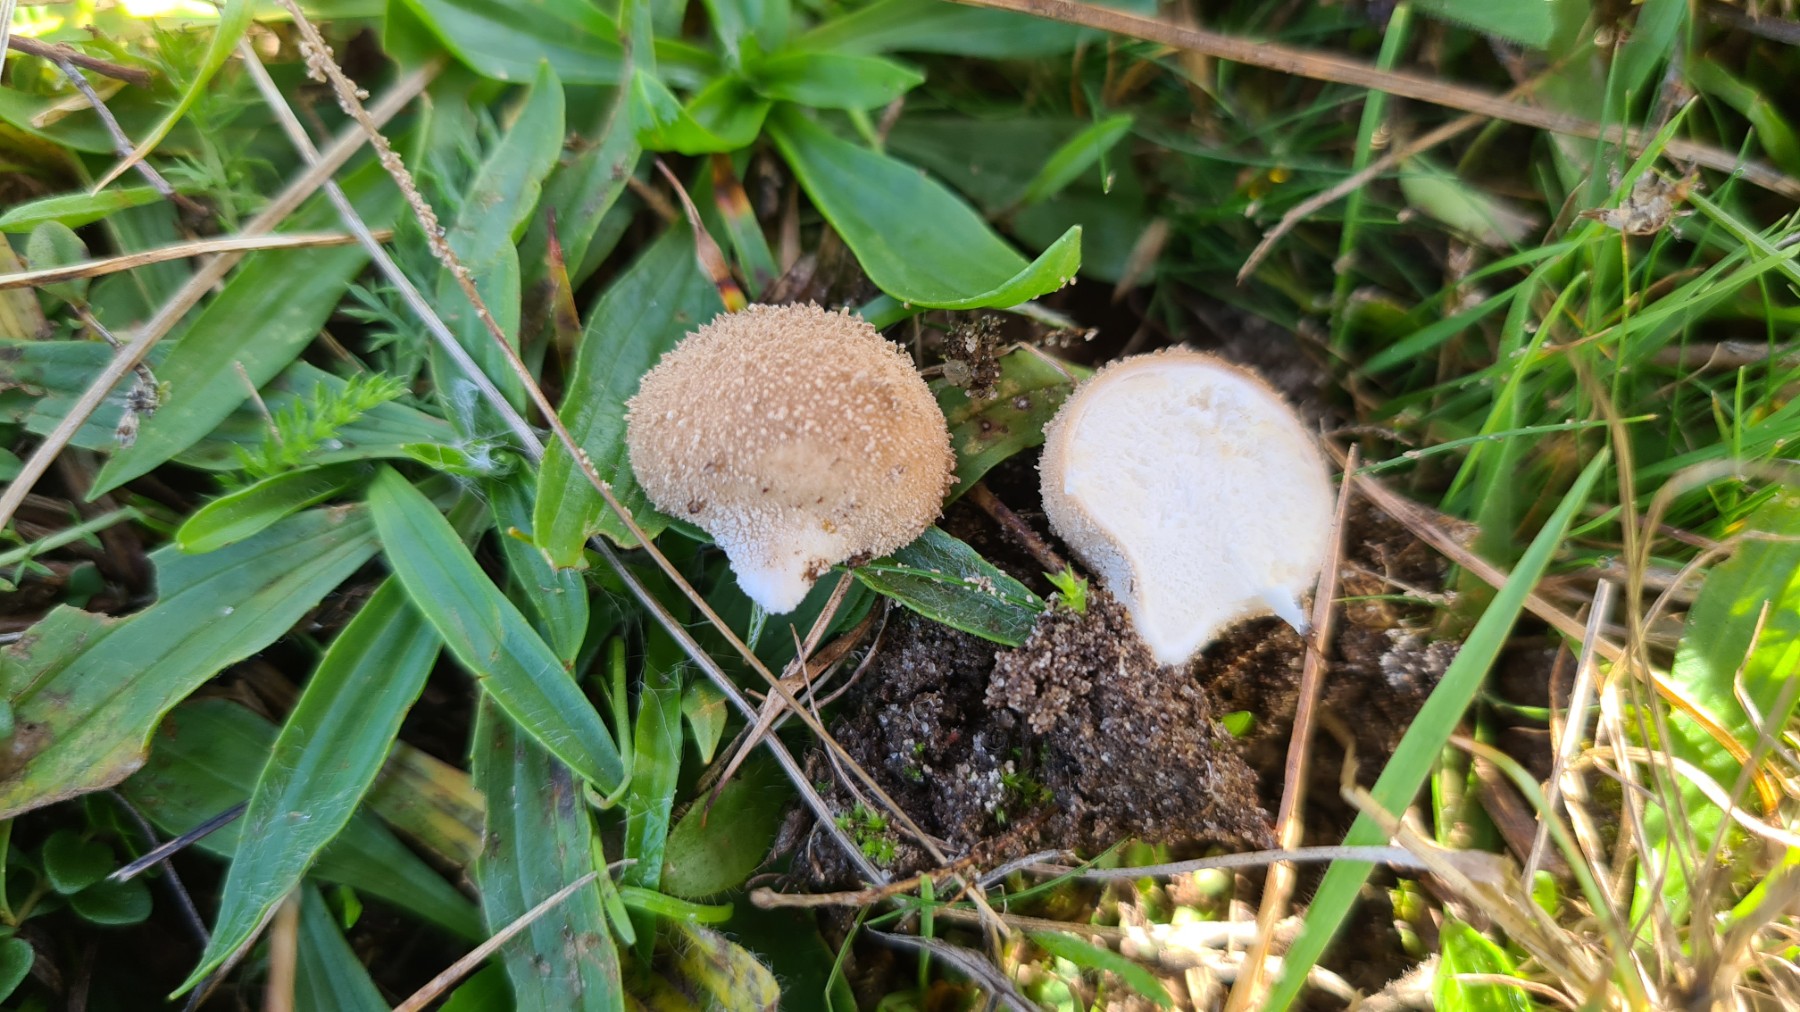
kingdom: Fungi
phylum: Basidiomycota
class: Agaricomycetes
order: Agaricales
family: Lycoperdaceae
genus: Lycoperdon
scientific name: Lycoperdon lividum
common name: mark-støvbold
